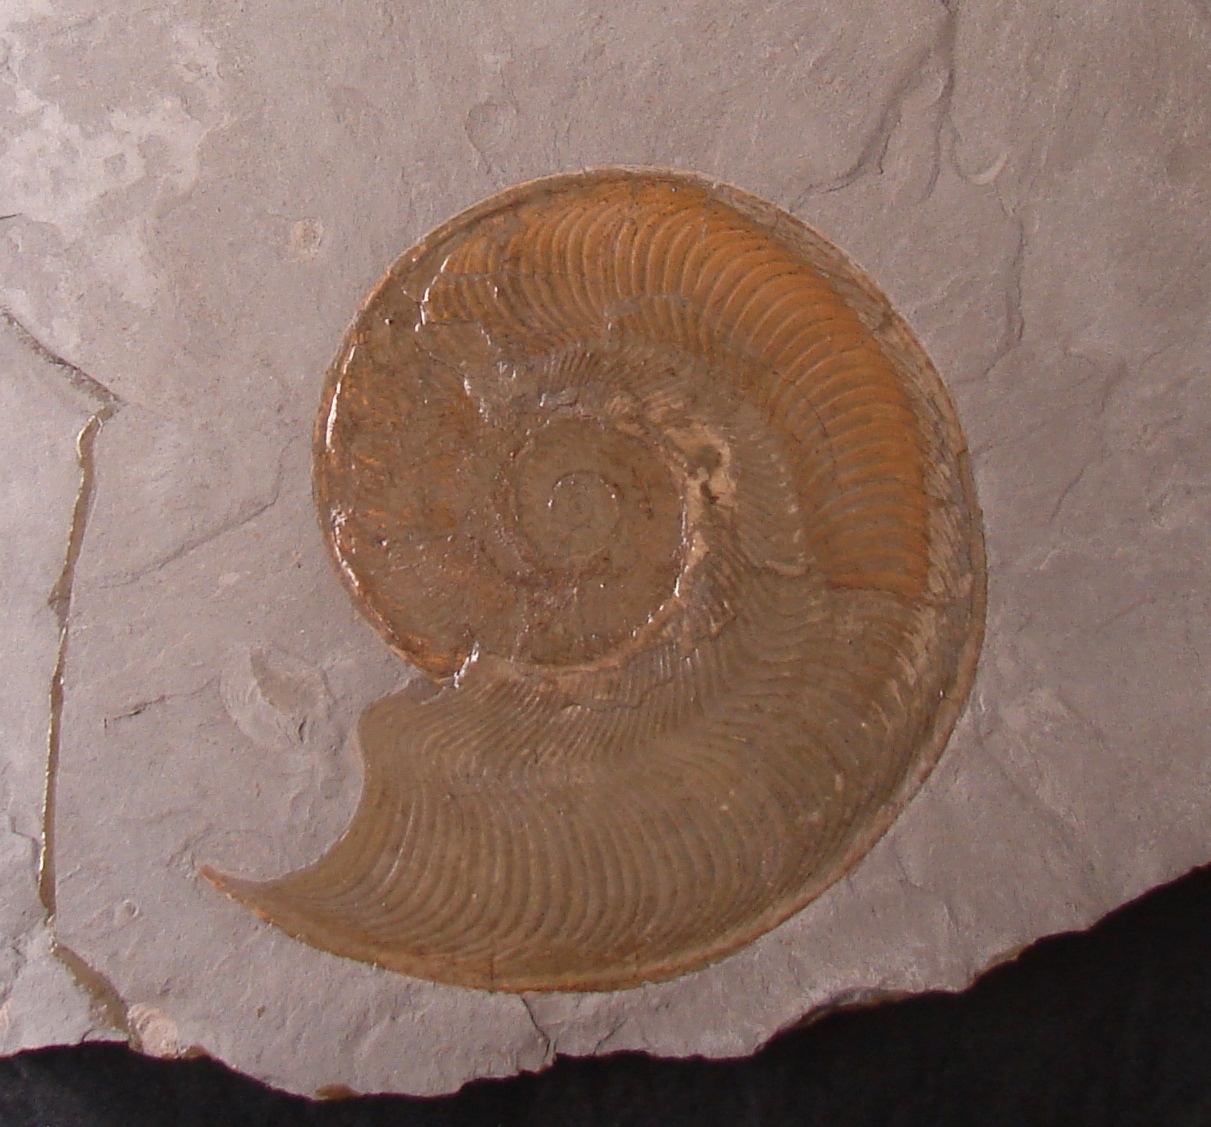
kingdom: Animalia
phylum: Mollusca
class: Cephalopoda
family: Hildoceratidae
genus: Harpoceras
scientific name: Harpoceras subplanatum
